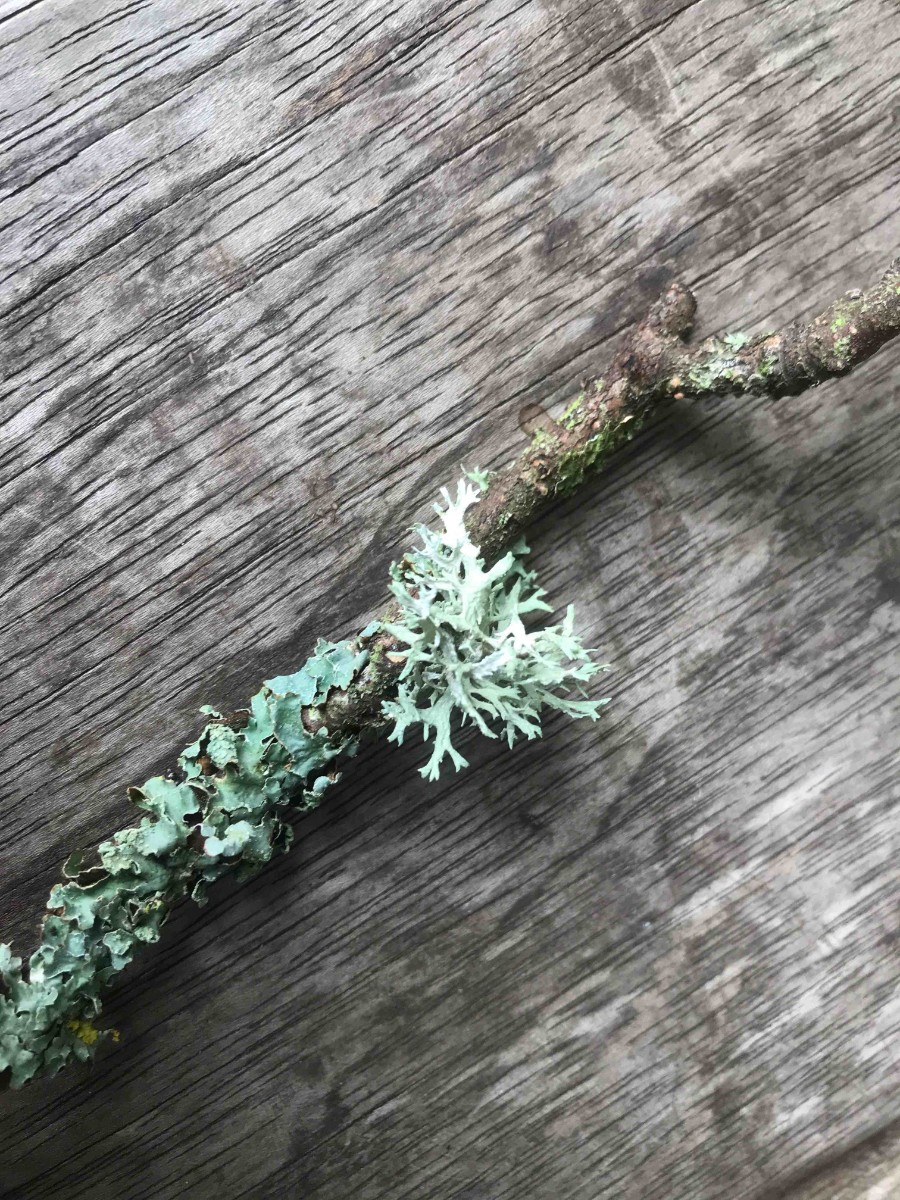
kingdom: Fungi
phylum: Ascomycota
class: Lecanoromycetes
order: Lecanorales
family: Parmeliaceae
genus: Parmelia
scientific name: Parmelia sulcata
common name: rynket skållav
